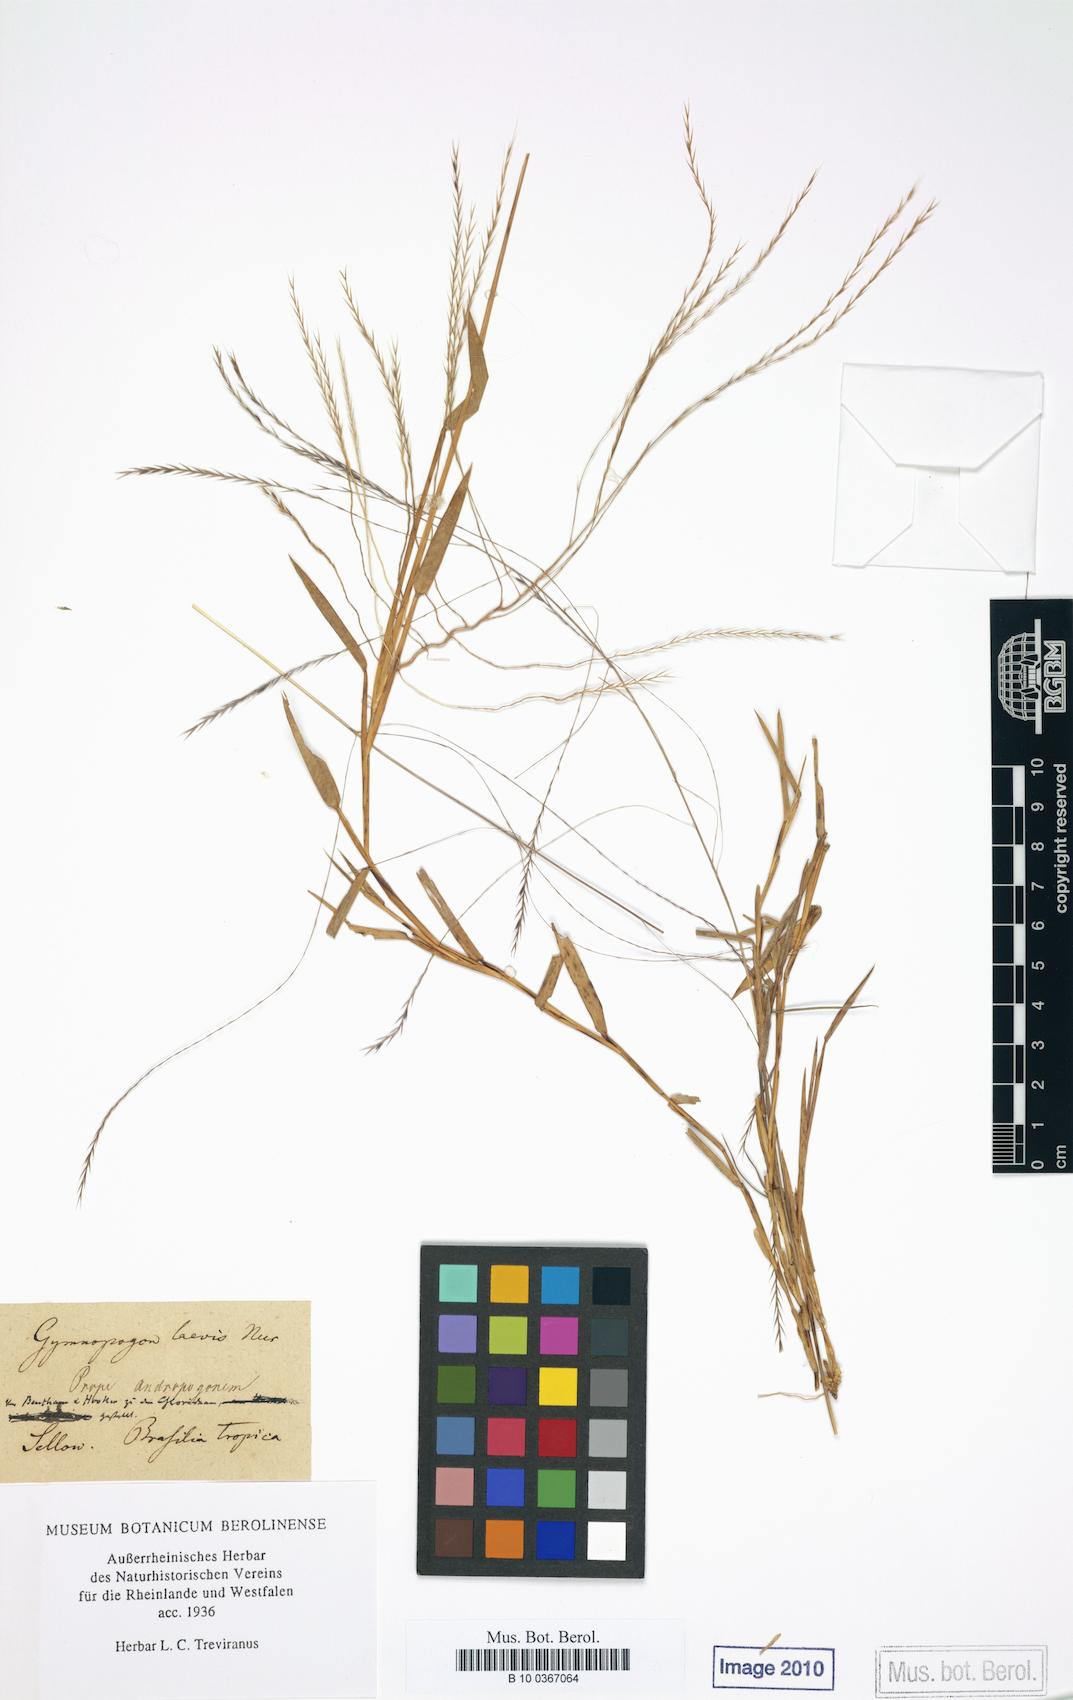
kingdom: Plantae
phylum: Tracheophyta
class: Liliopsida
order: Poales
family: Poaceae
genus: Gymnopogon
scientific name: Gymnopogon spicatus
